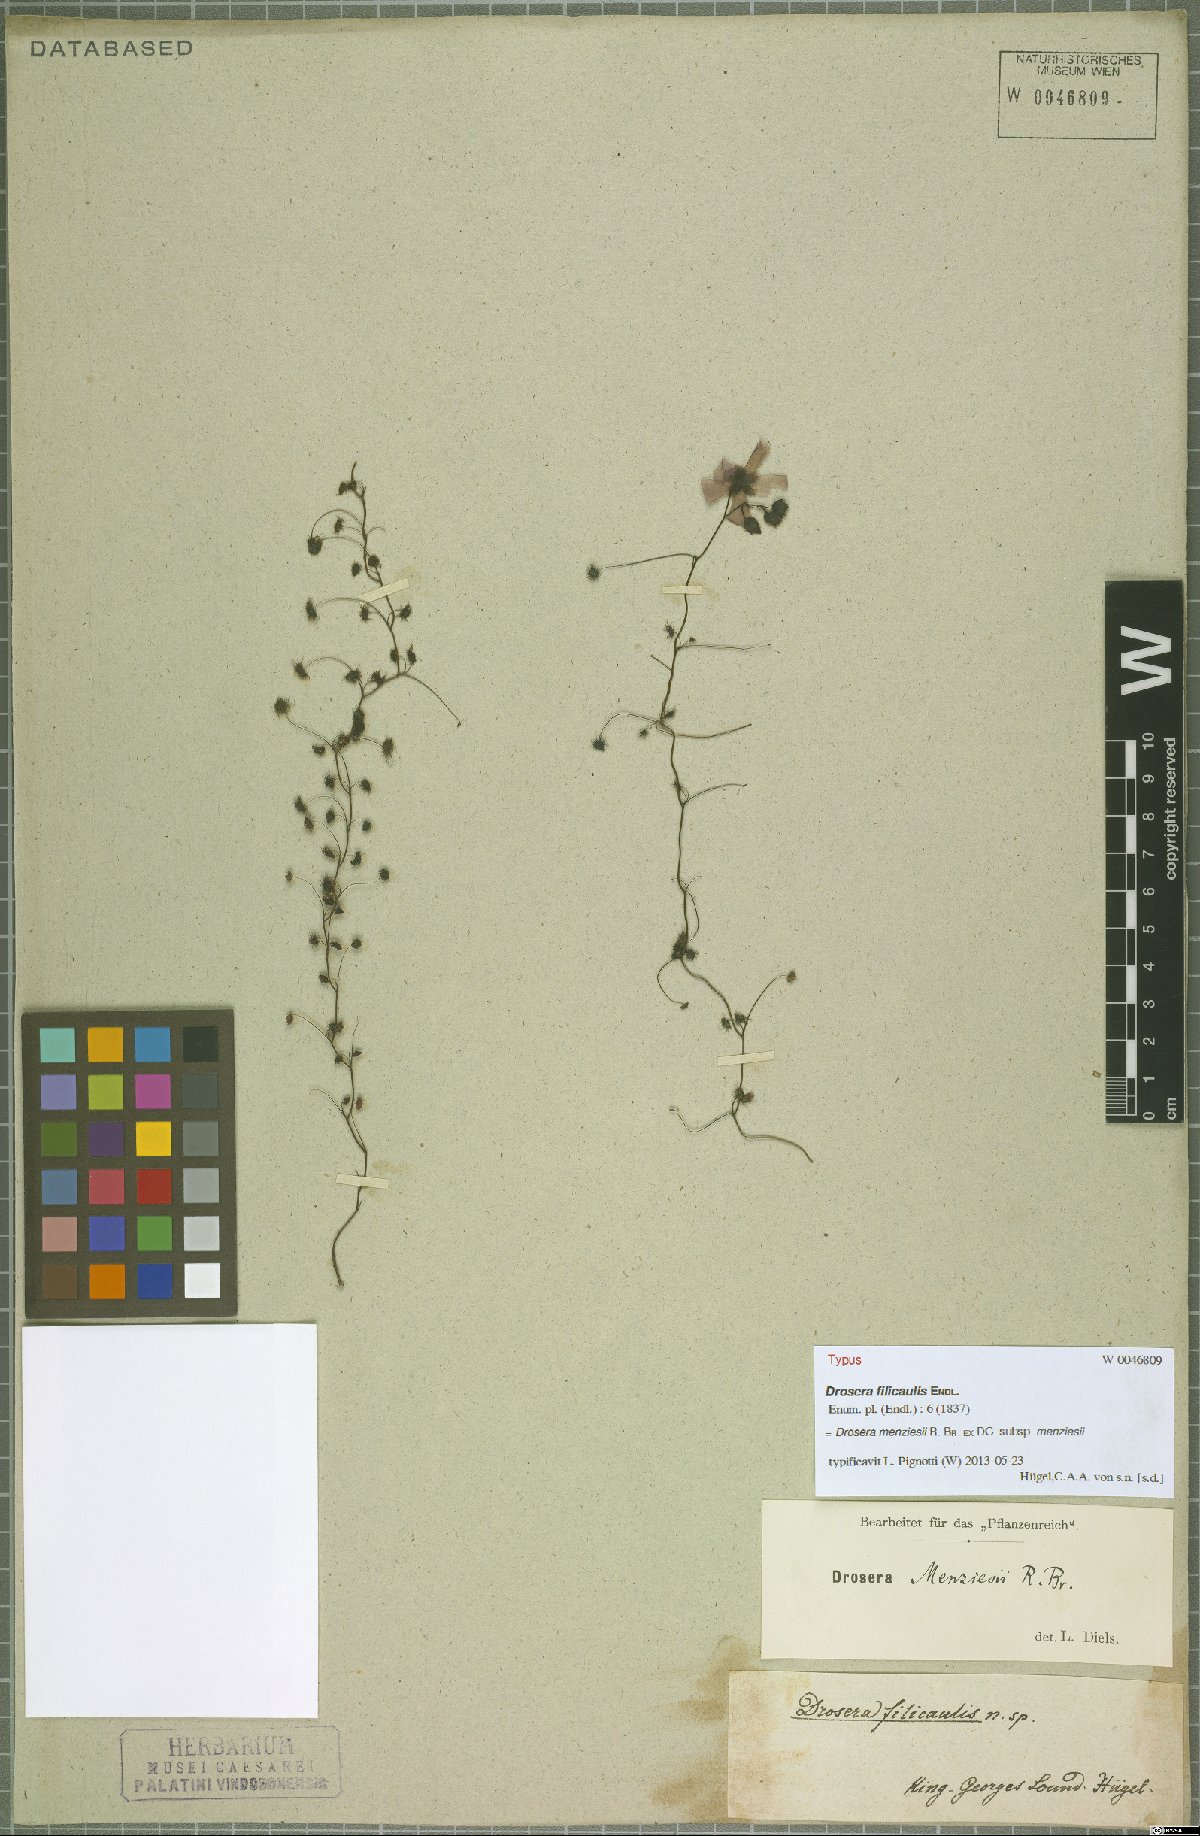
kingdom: Plantae
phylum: Tracheophyta
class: Magnoliopsida
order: Caryophyllales
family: Droseraceae
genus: Drosera
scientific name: Drosera menziesii
